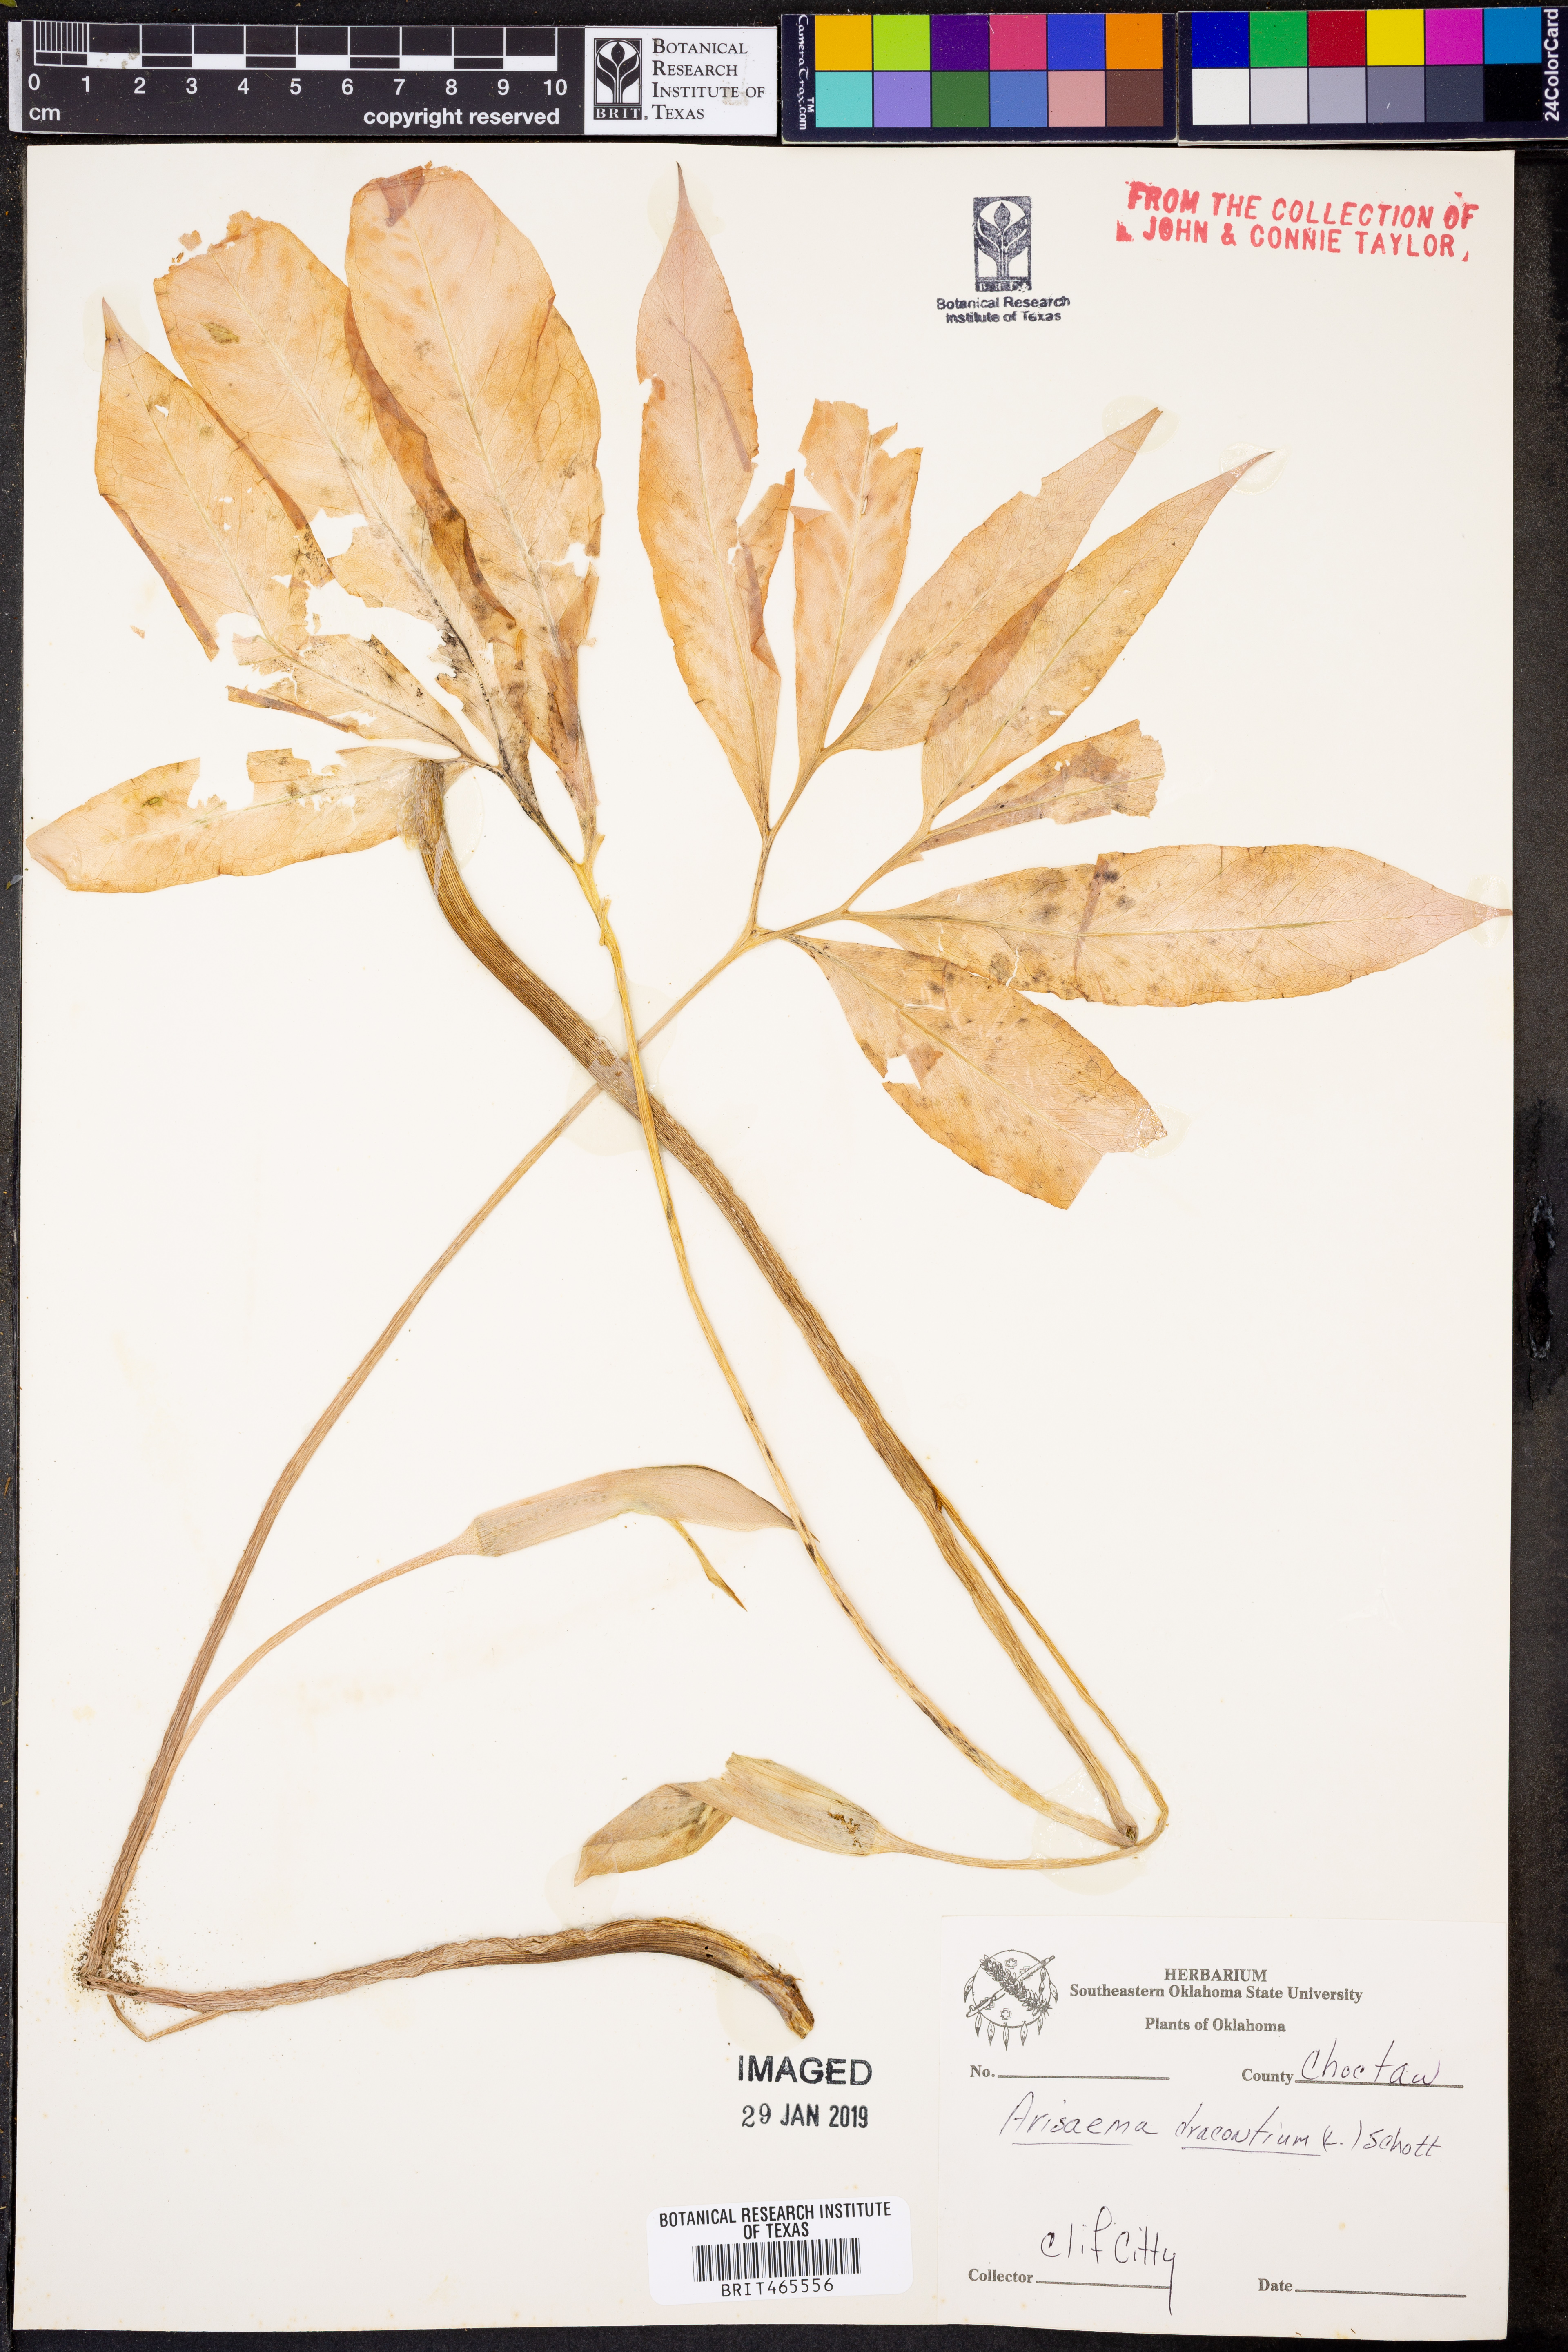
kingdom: Plantae
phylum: Tracheophyta
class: Liliopsida
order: Alismatales
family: Araceae
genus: Arisaema
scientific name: Arisaema dracontium
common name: Dragon-arum
